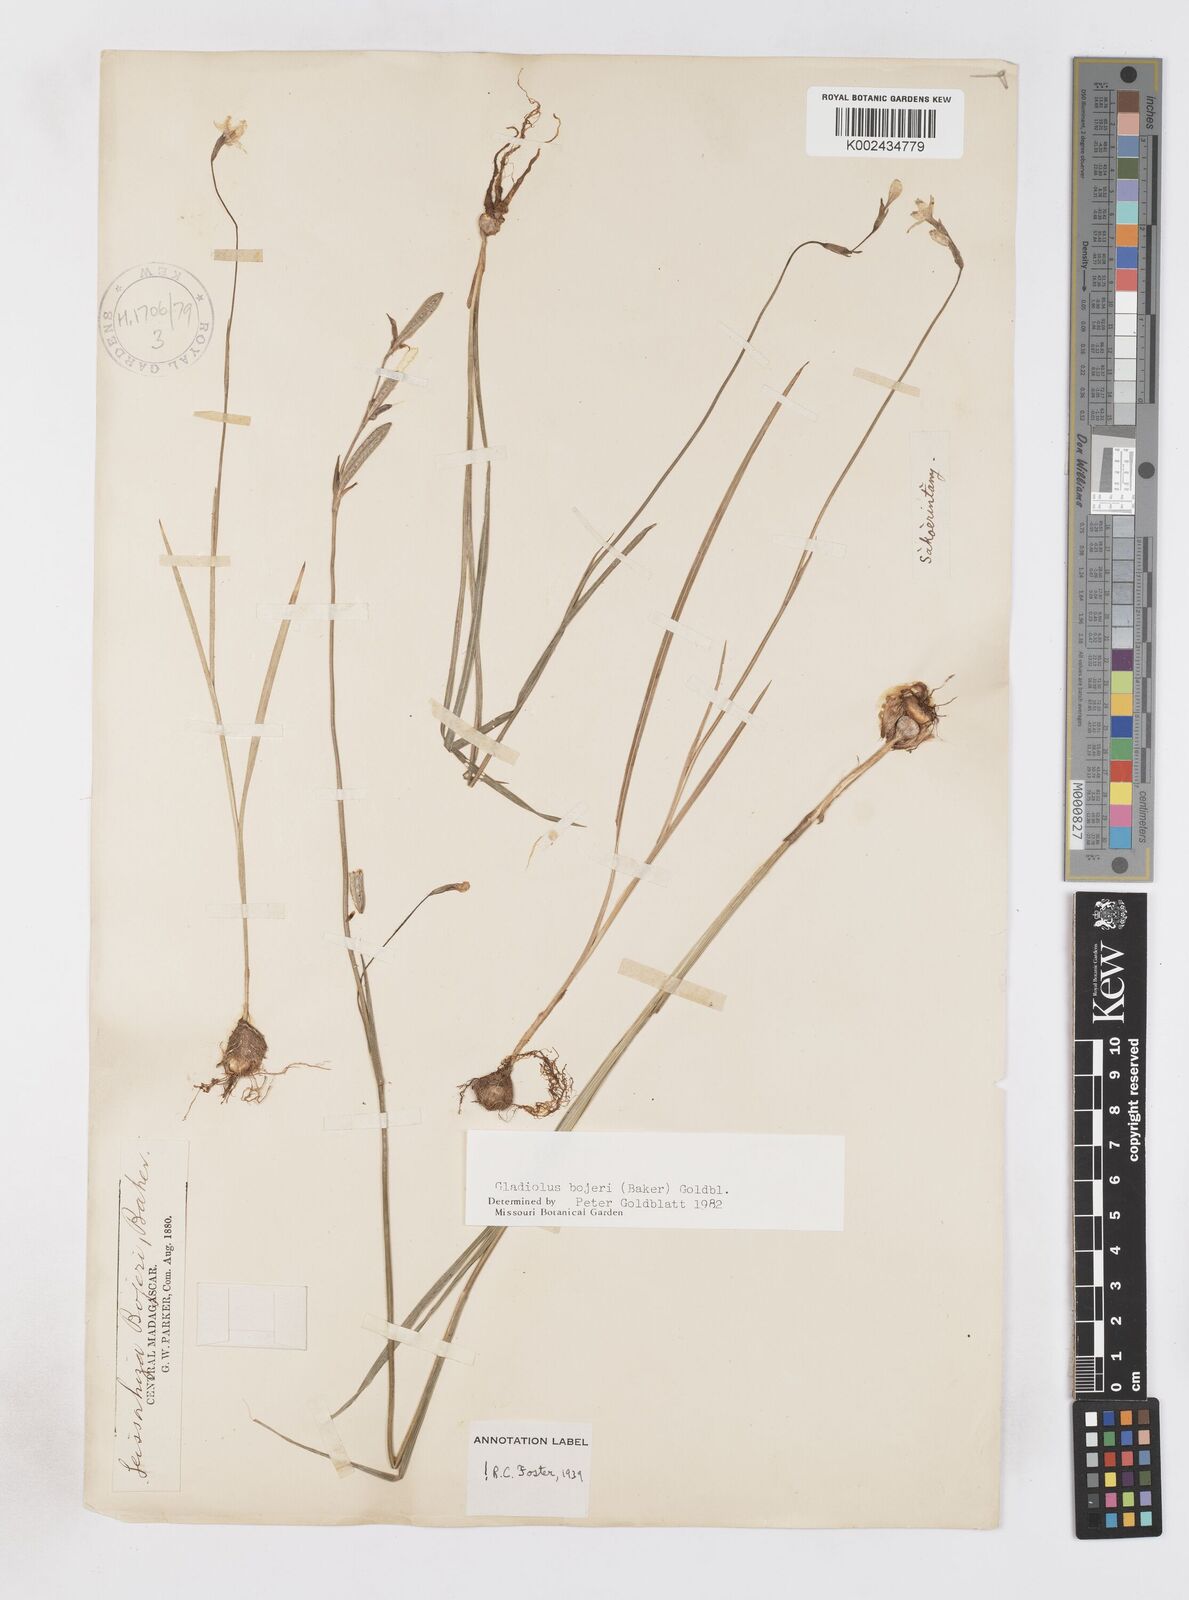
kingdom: Plantae
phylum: Tracheophyta
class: Liliopsida
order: Asparagales
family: Iridaceae
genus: Gladiolus
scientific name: Gladiolus bojeri
